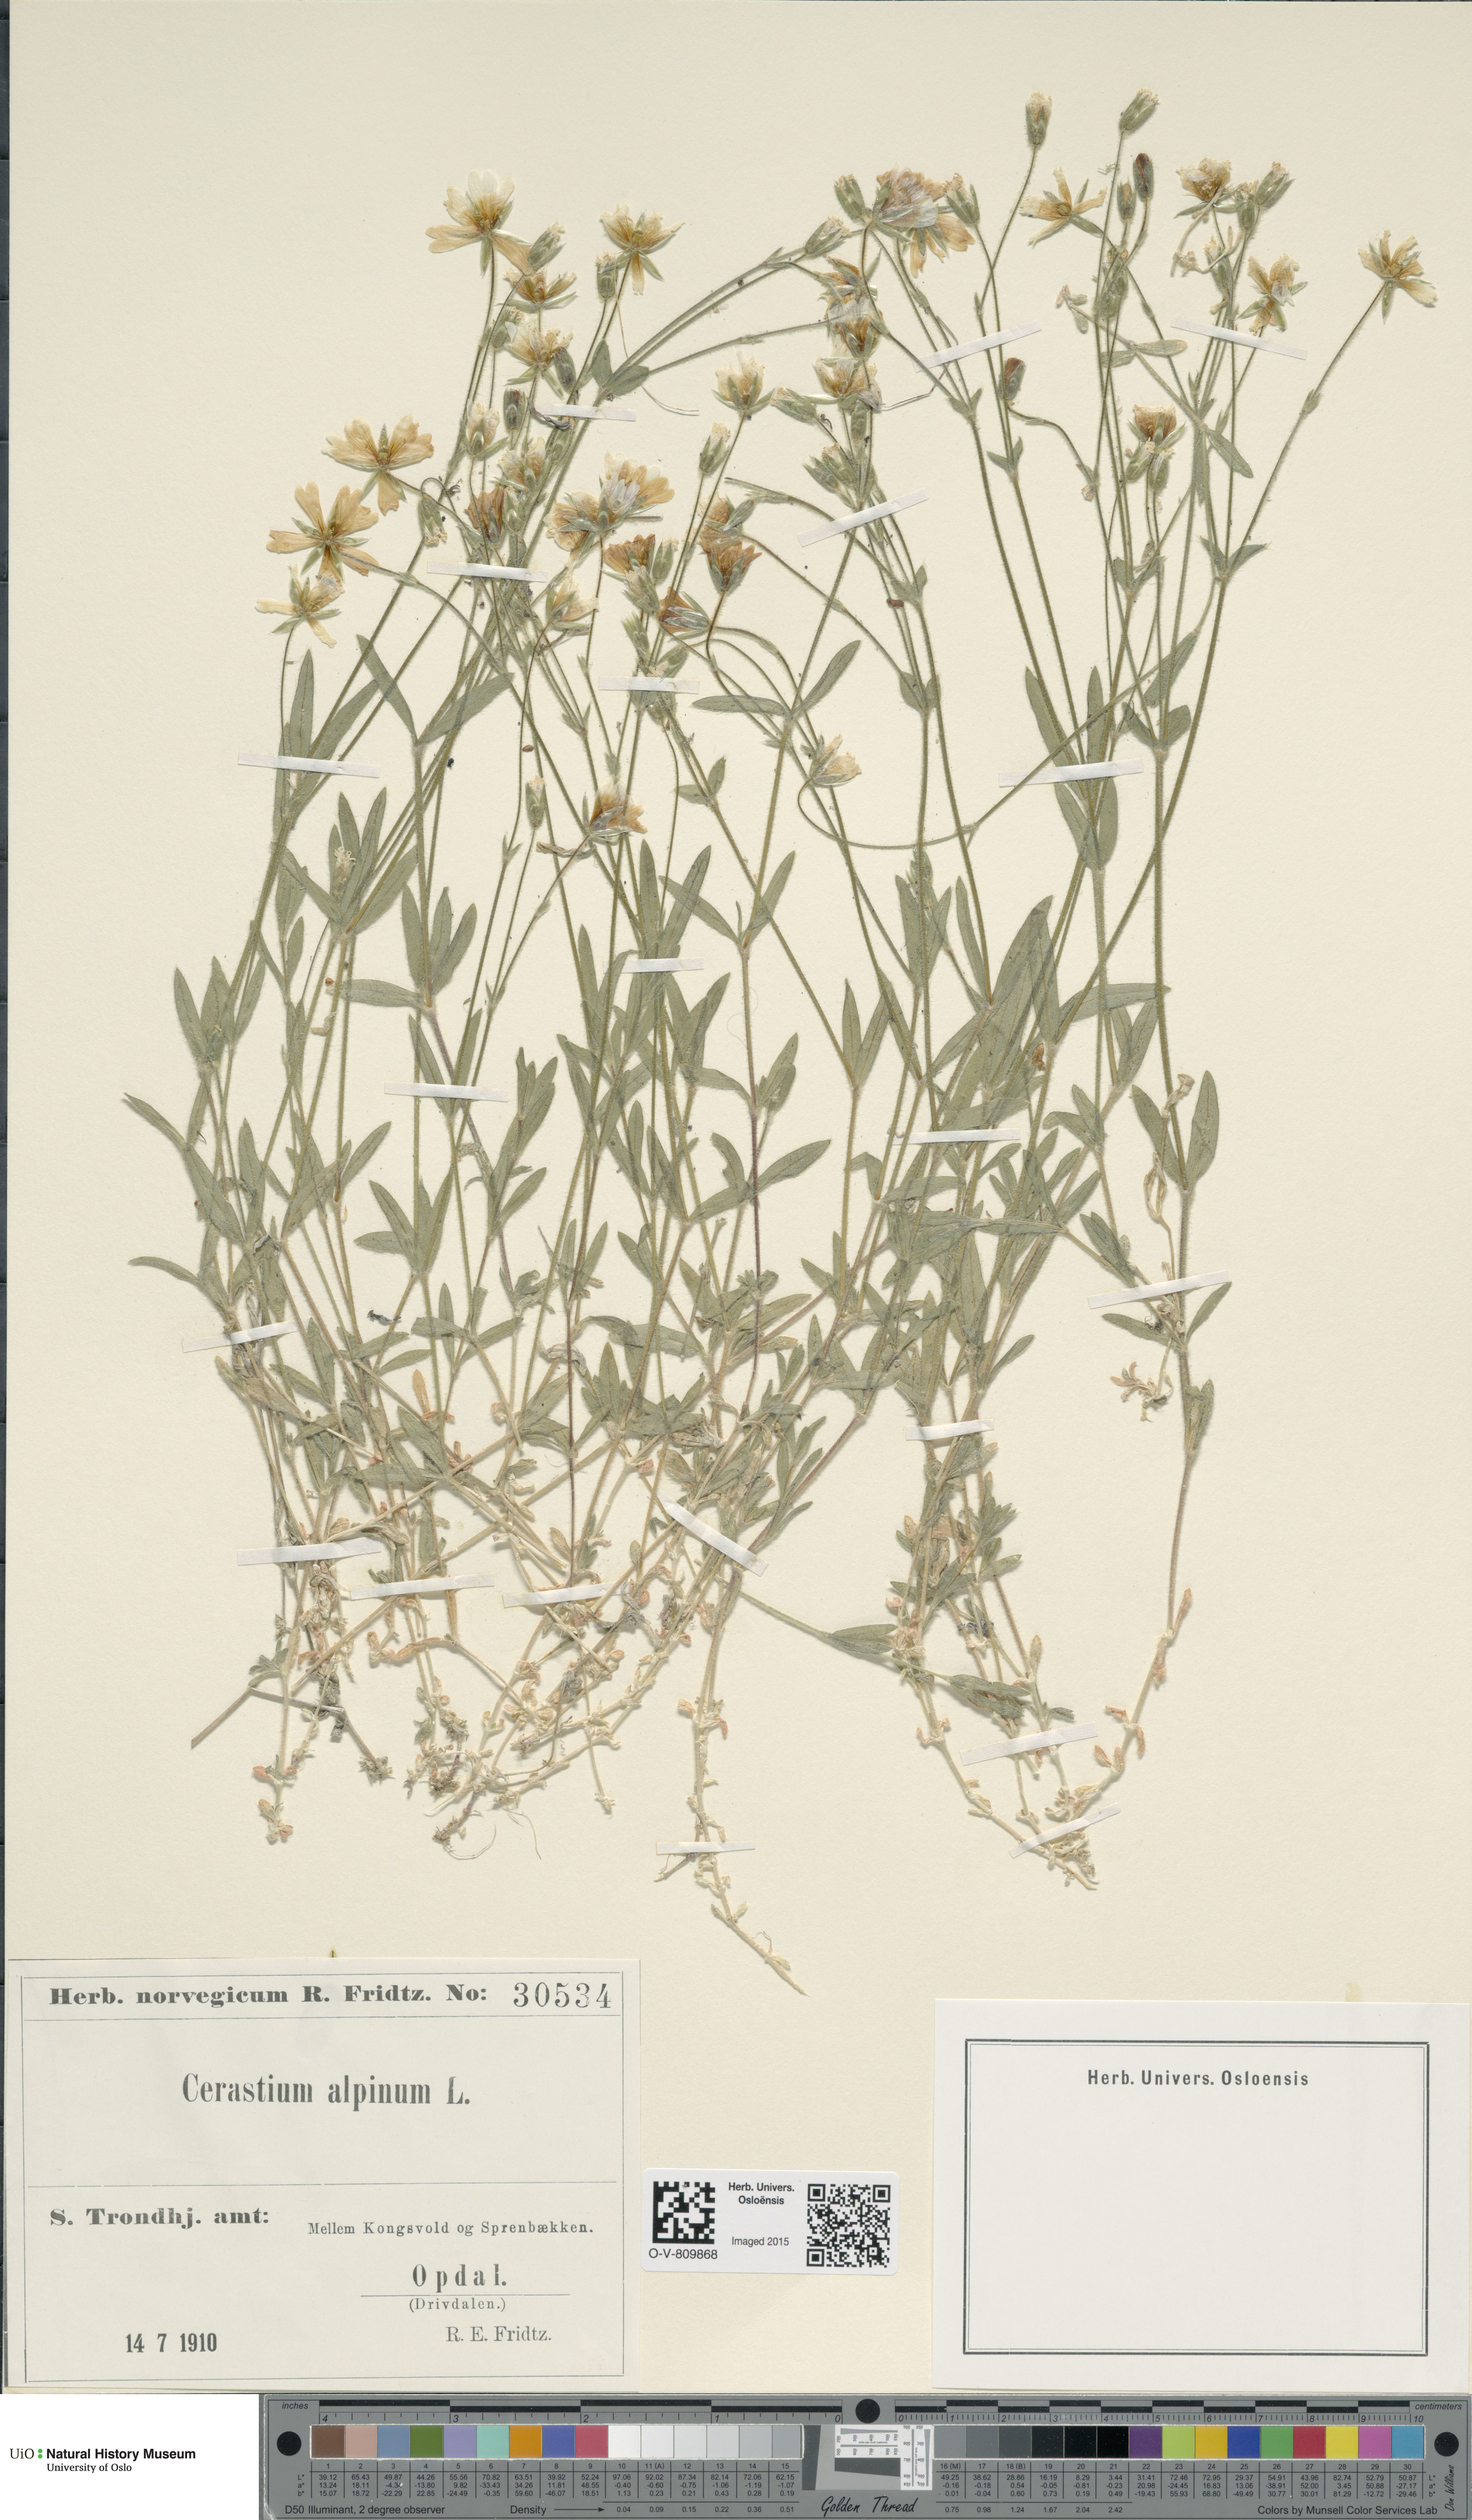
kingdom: Plantae
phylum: Tracheophyta
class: Magnoliopsida
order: Caryophyllales
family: Caryophyllaceae
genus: Cerastium
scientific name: Cerastium alpinum
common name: Alpine mouse-ear
